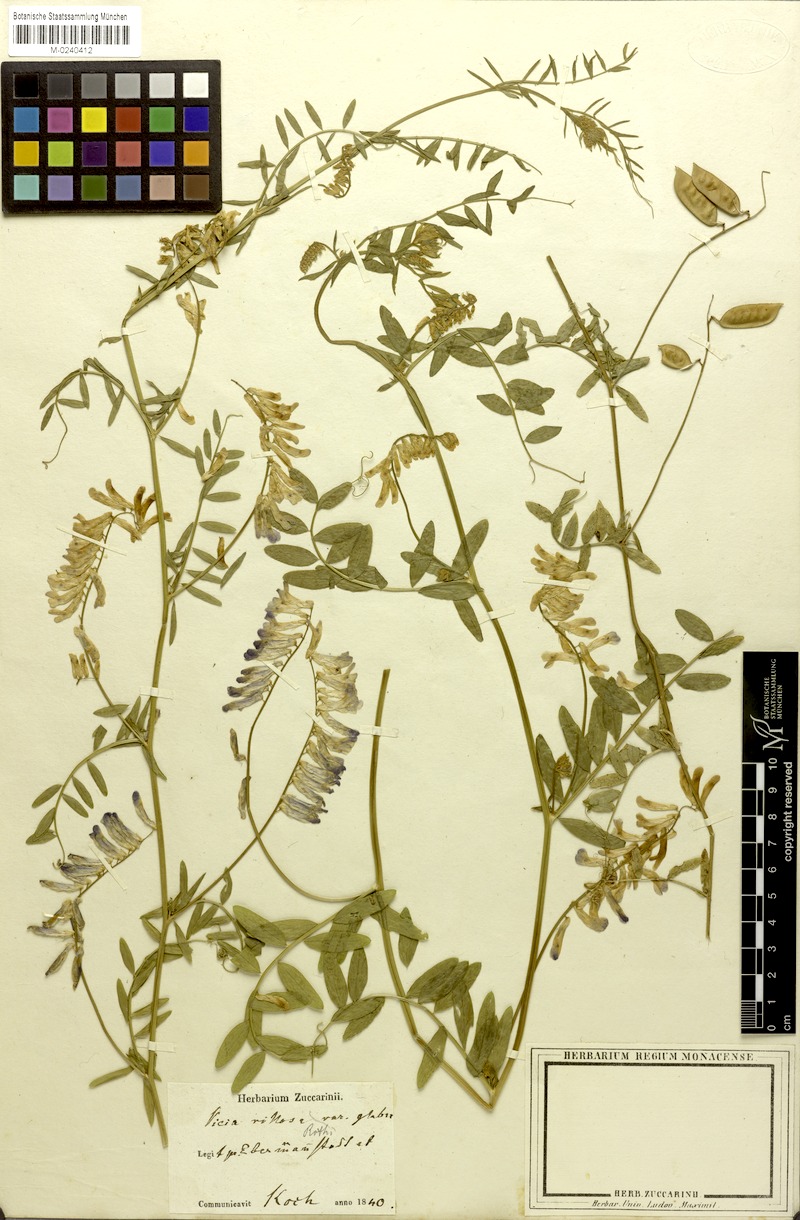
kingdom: Plantae
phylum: Tracheophyta
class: Magnoliopsida
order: Fabales
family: Fabaceae
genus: Vicia
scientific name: Vicia villosa
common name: Fodder vetch
